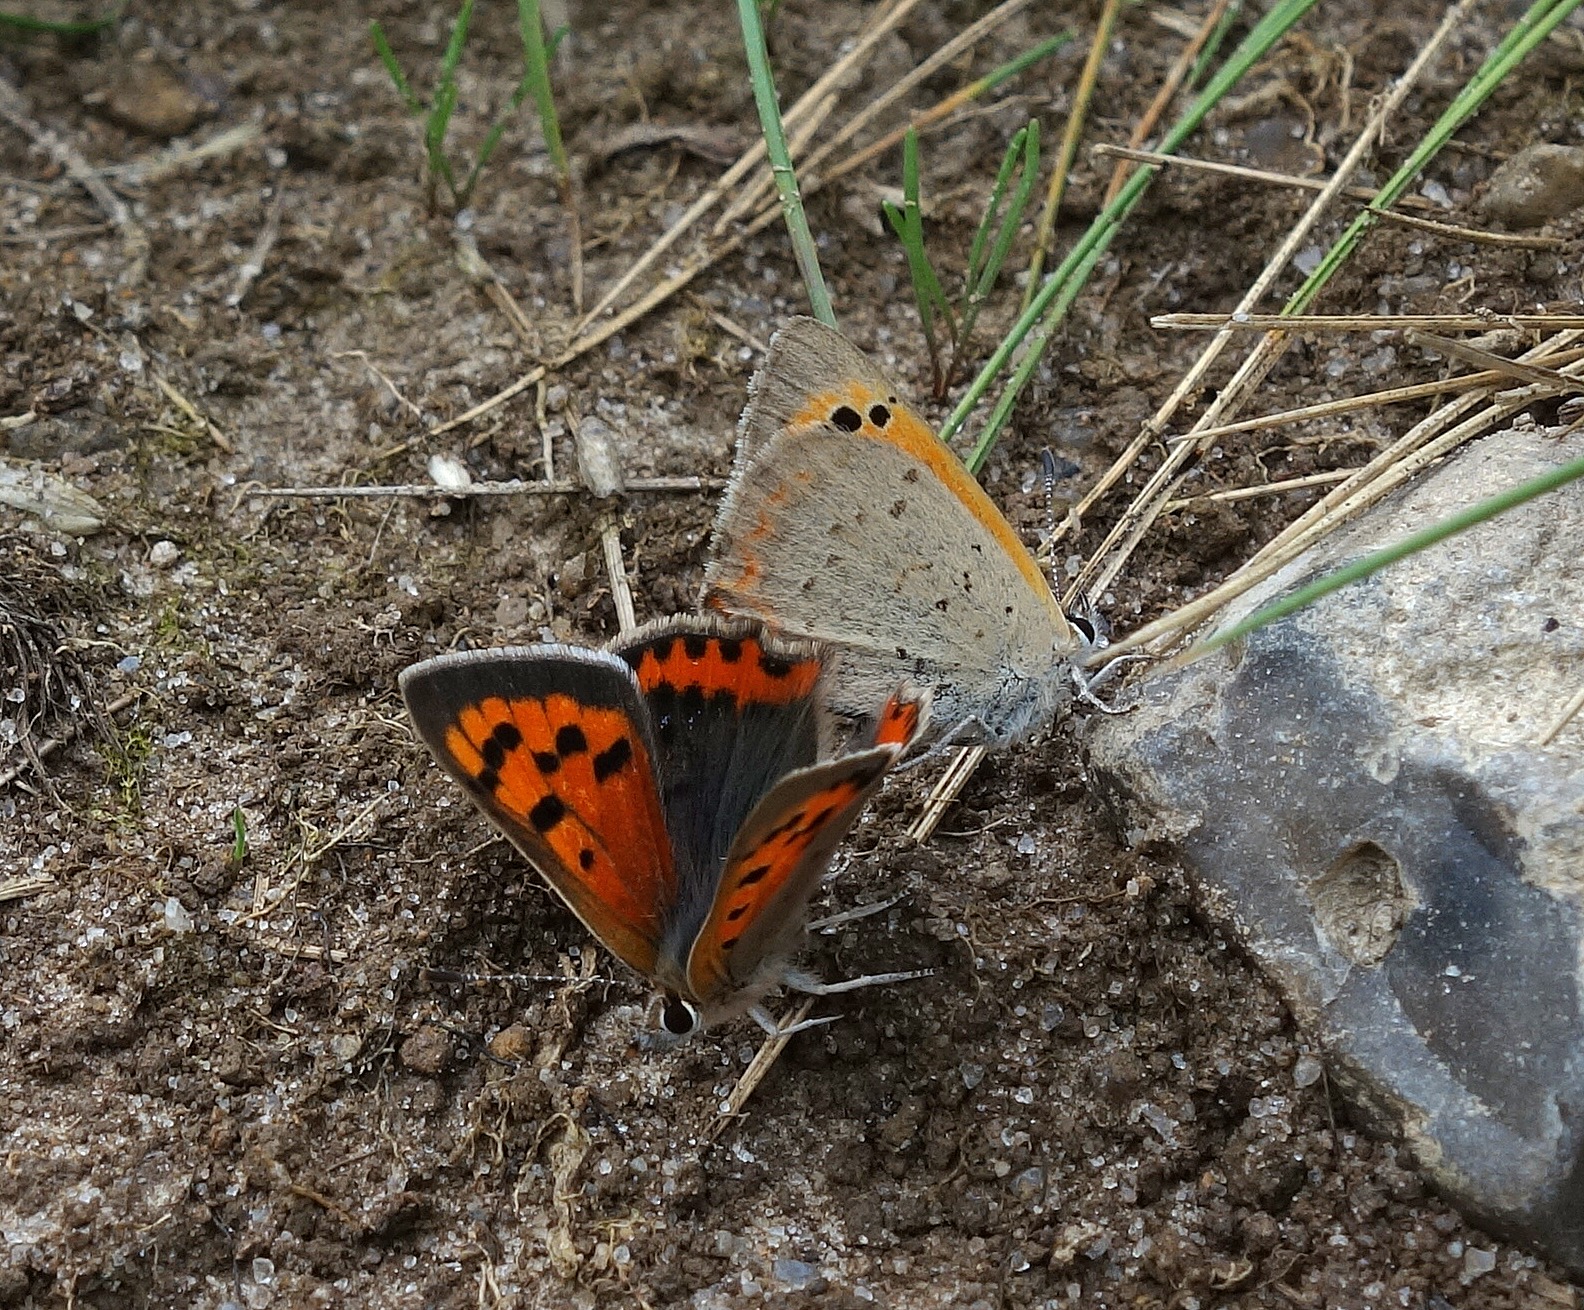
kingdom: Animalia
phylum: Arthropoda
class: Insecta
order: Lepidoptera
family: Lycaenidae
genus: Lycaena
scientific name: Lycaena phlaeas
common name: Lille ildfugl
